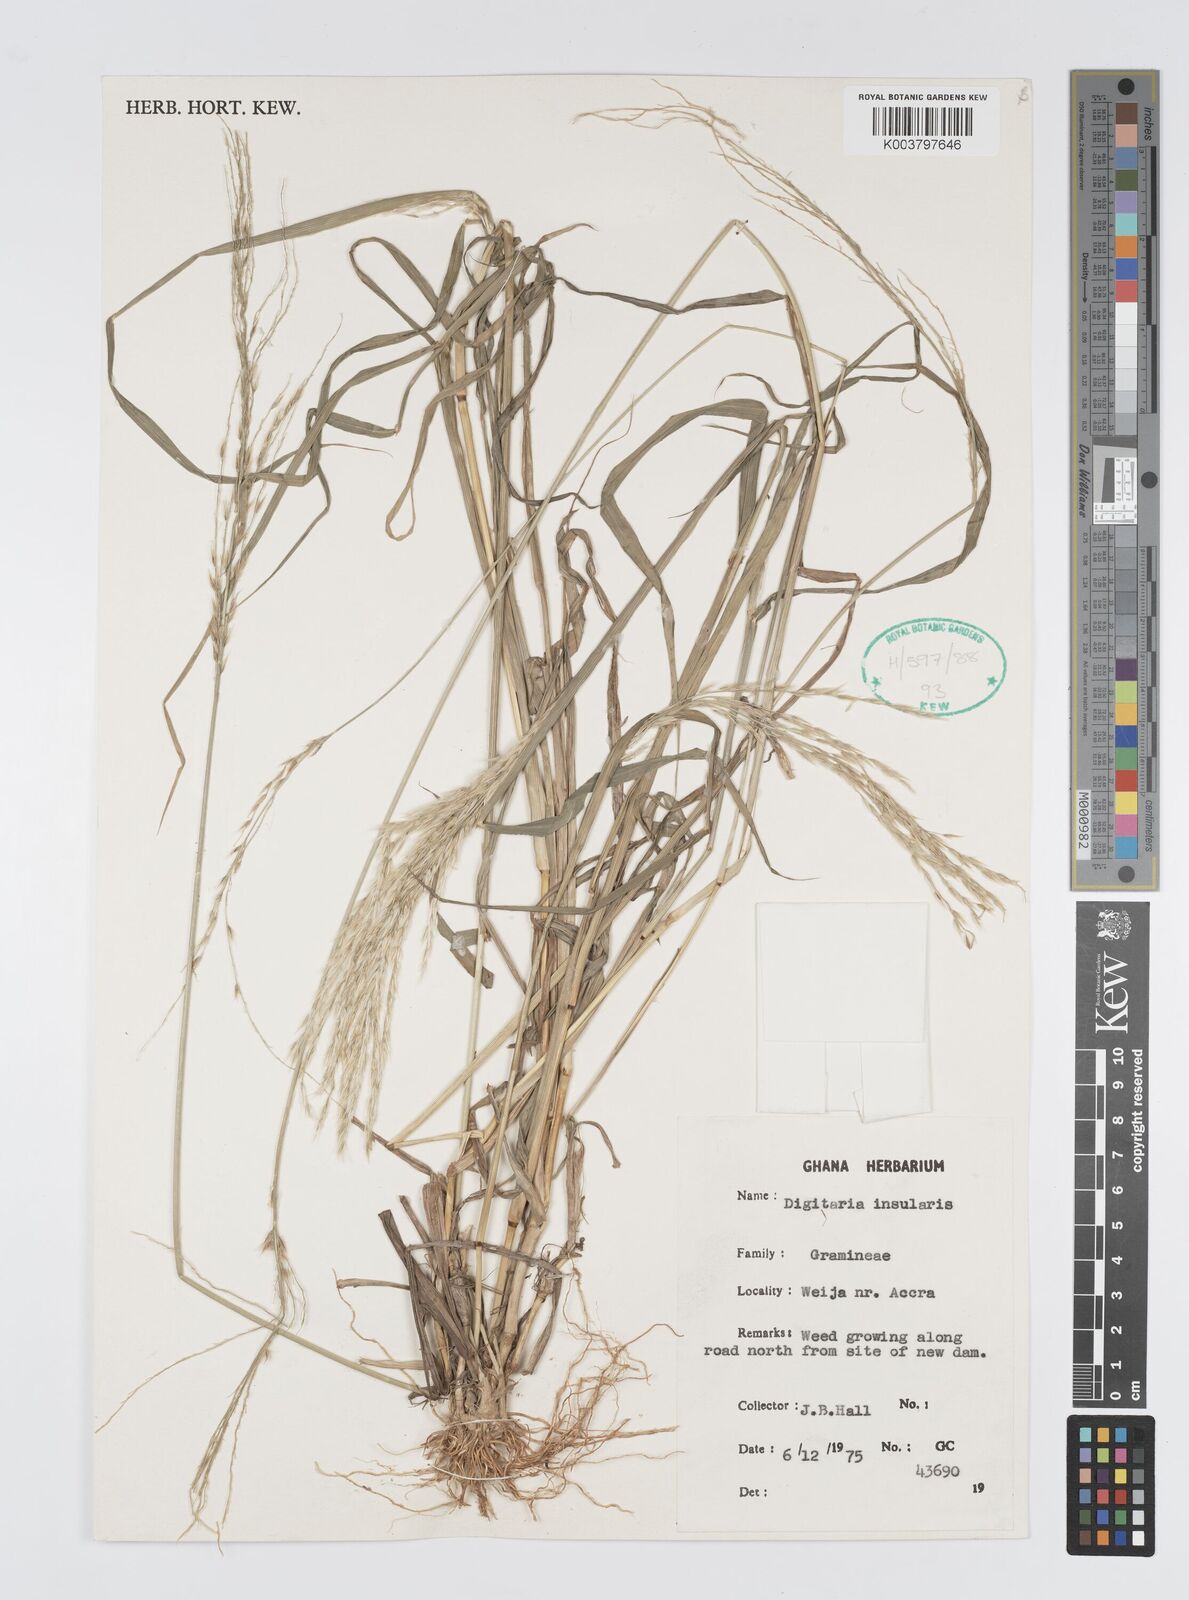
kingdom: Plantae
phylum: Tracheophyta
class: Liliopsida
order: Poales
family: Poaceae
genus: Digitaria
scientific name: Digitaria insularis
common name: Sourgrass
